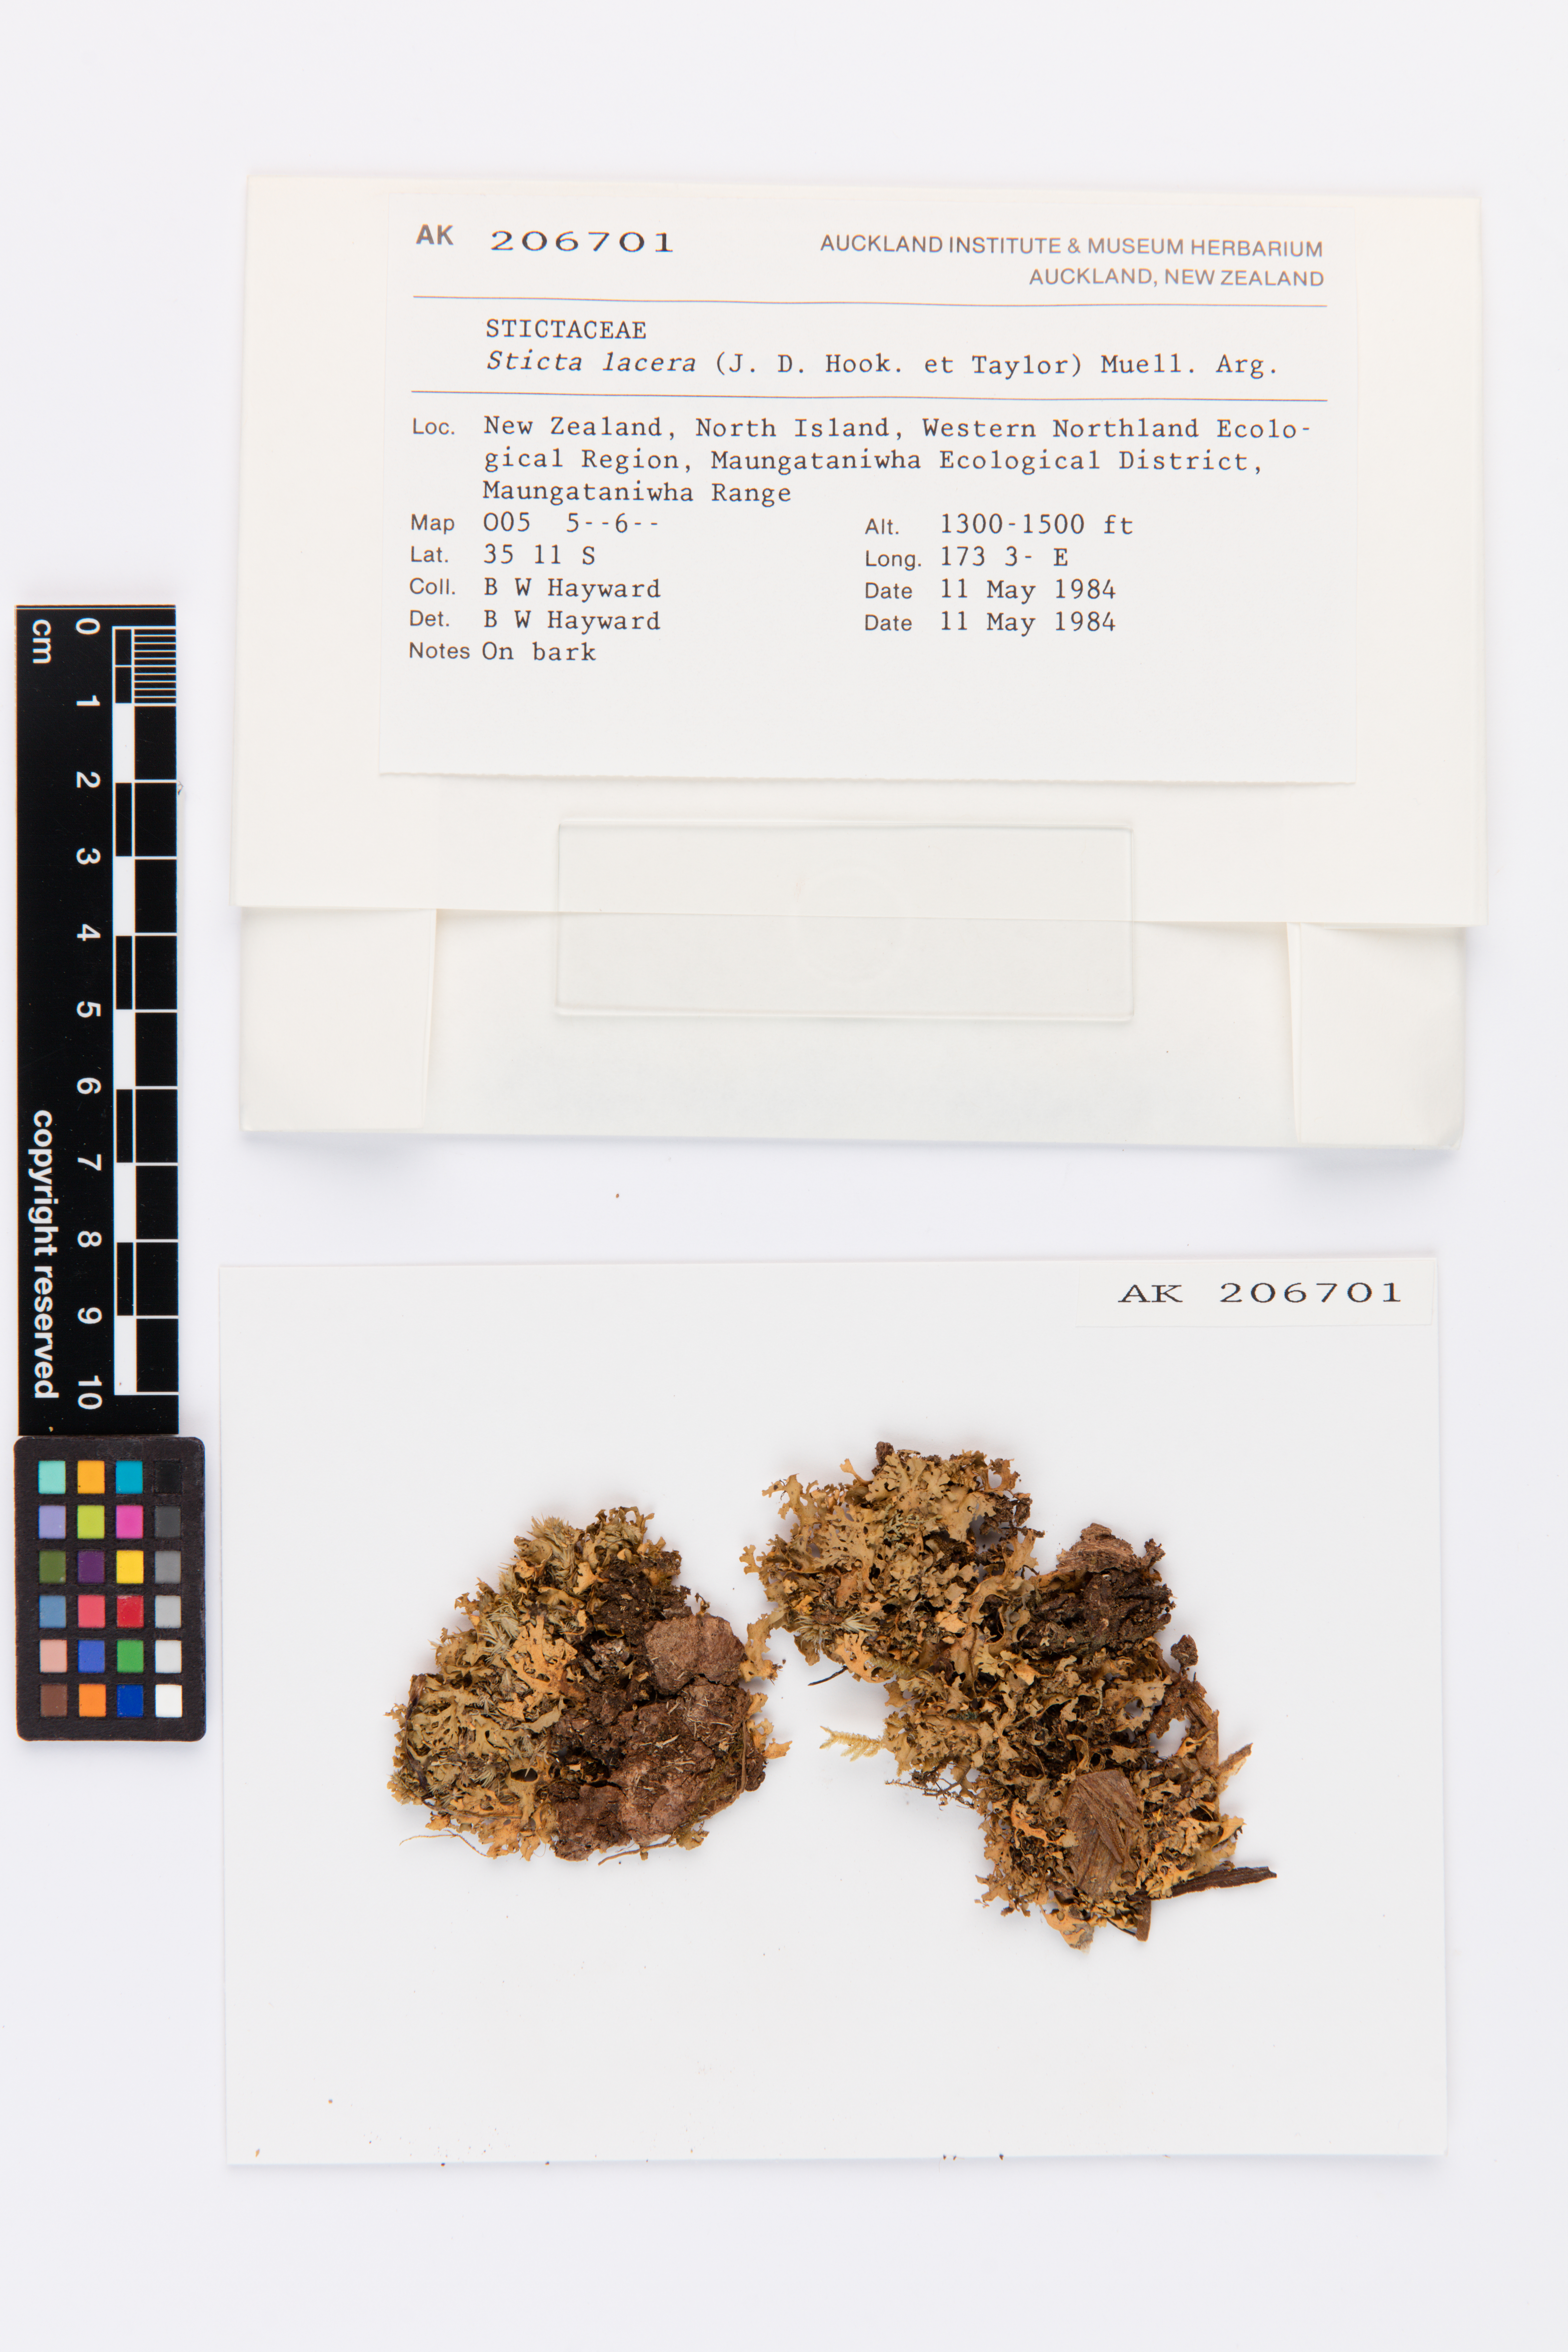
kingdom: Fungi
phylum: Ascomycota
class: Lecanoromycetes
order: Peltigerales
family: Lobariaceae
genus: Sticta
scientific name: Sticta
